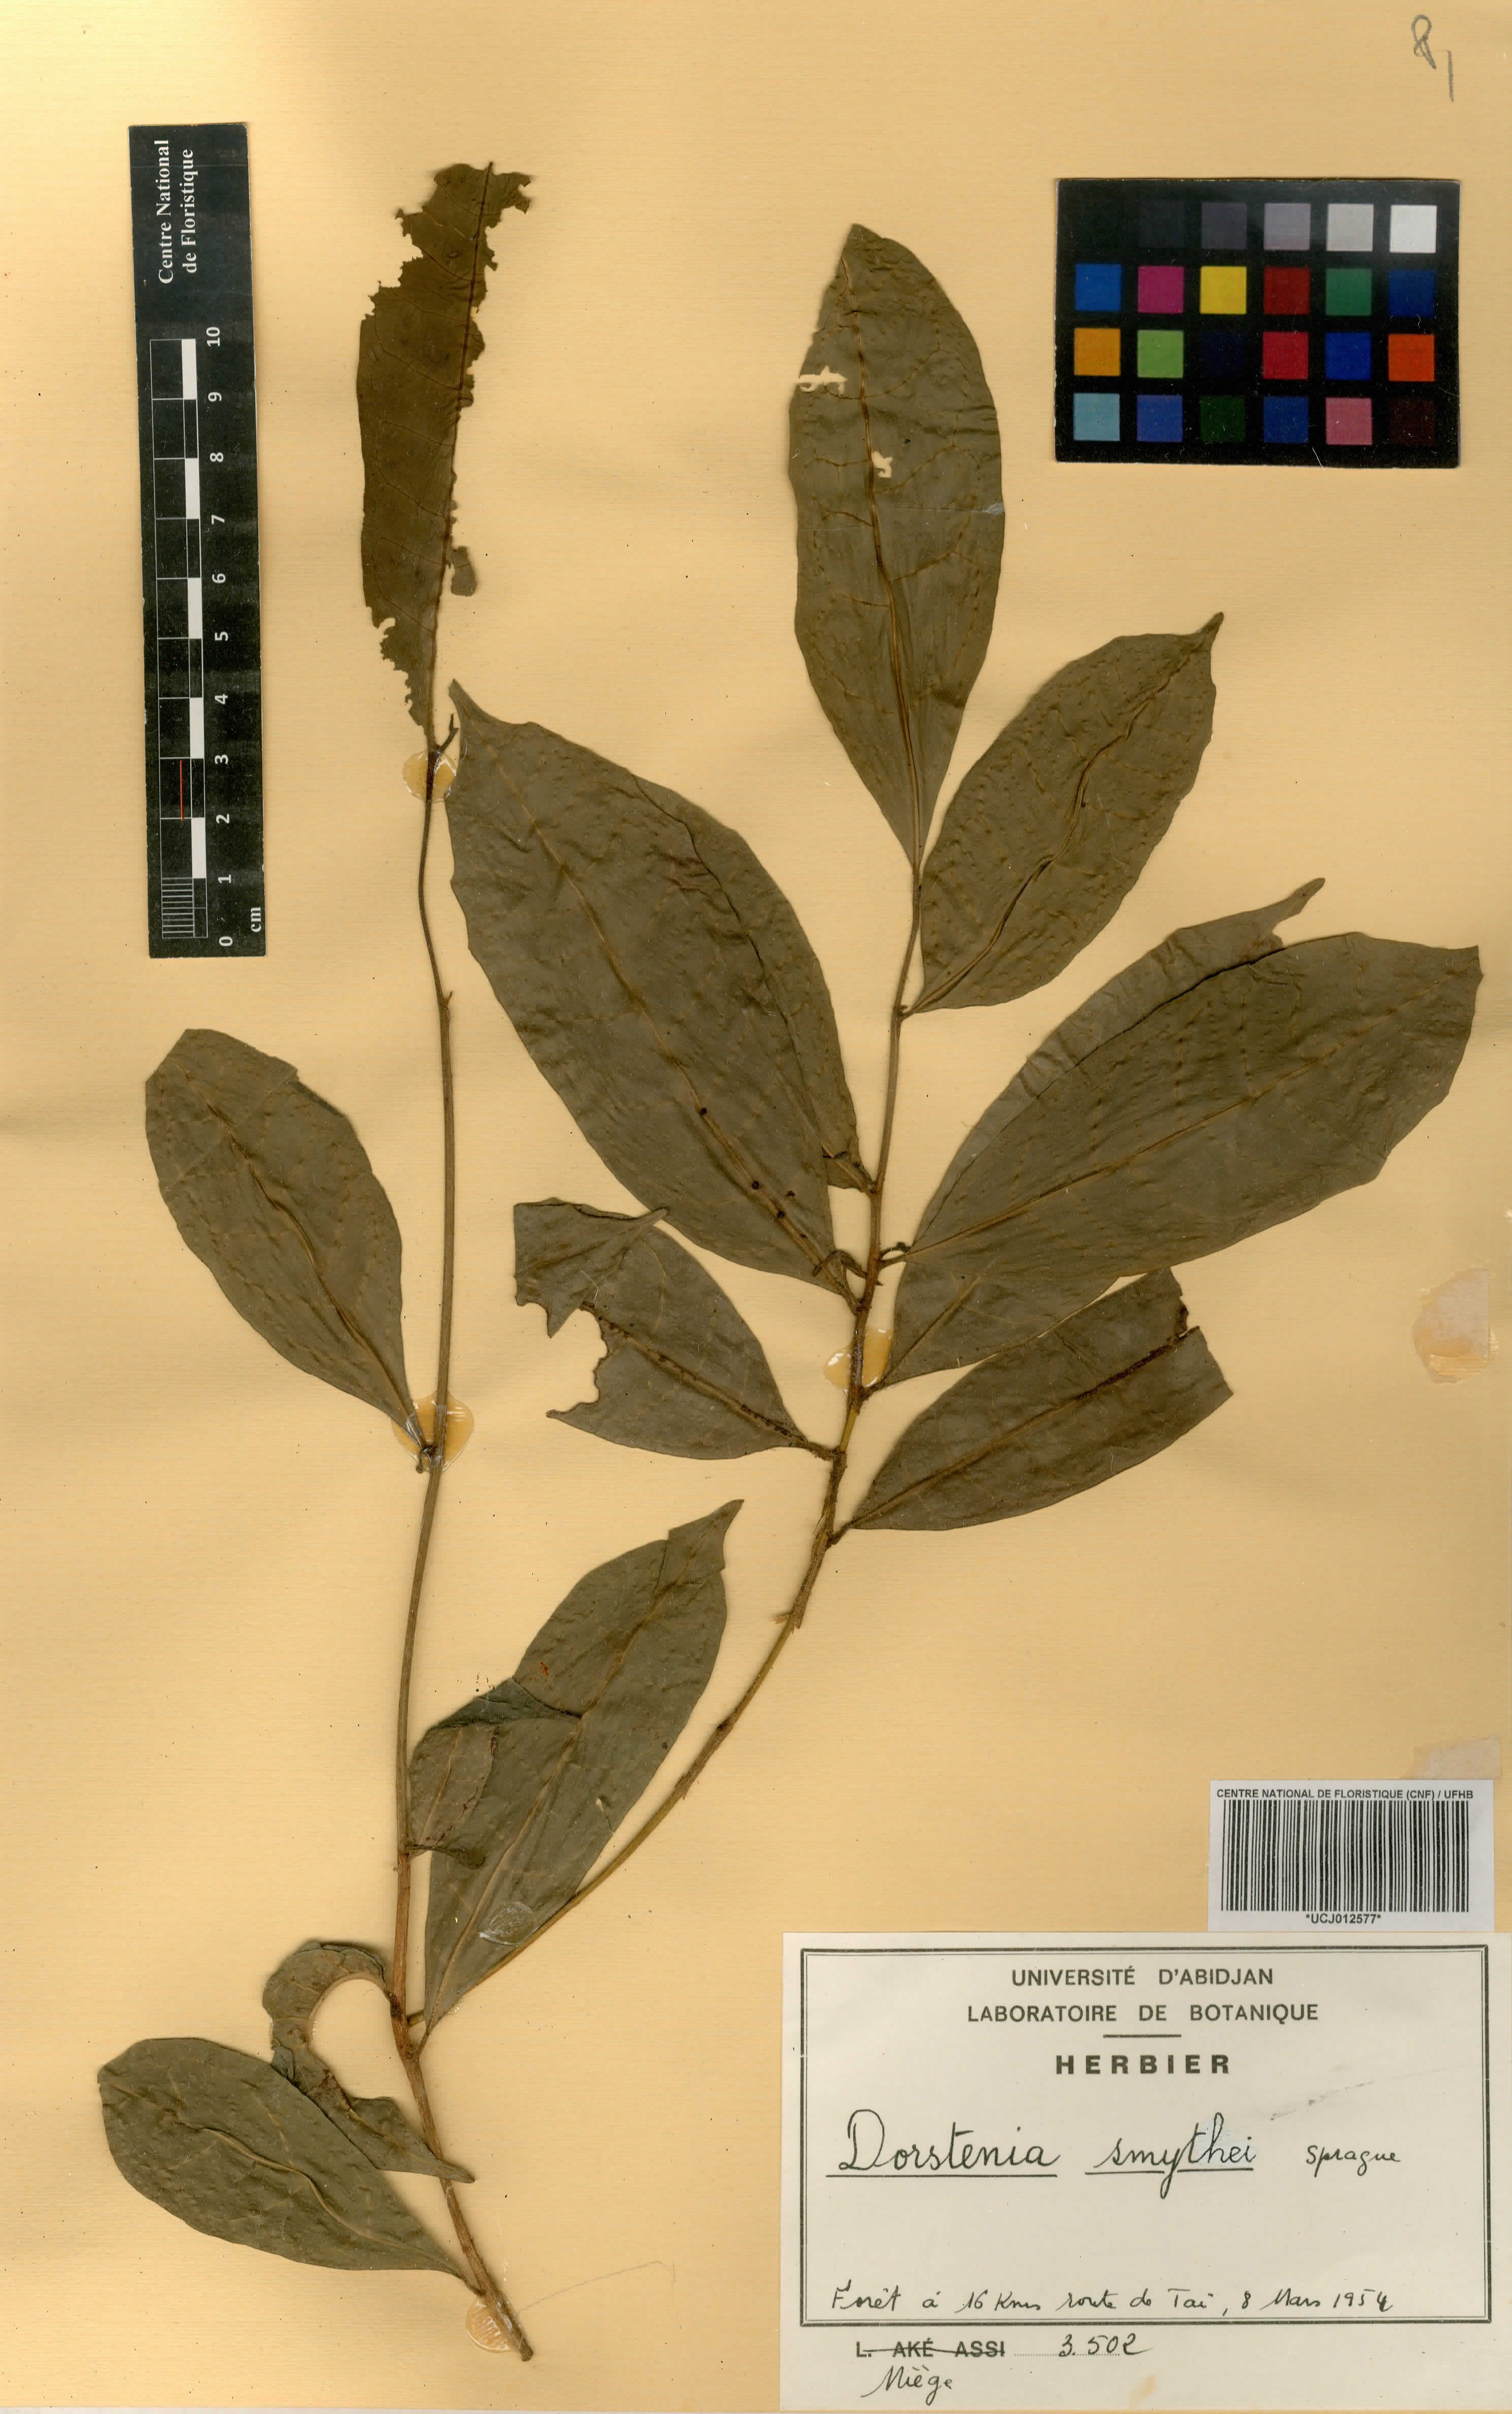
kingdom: Plantae
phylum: Tracheophyta
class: Magnoliopsida
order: Rosales
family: Moraceae
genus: Hijmania
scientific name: Hijmania turbinata
